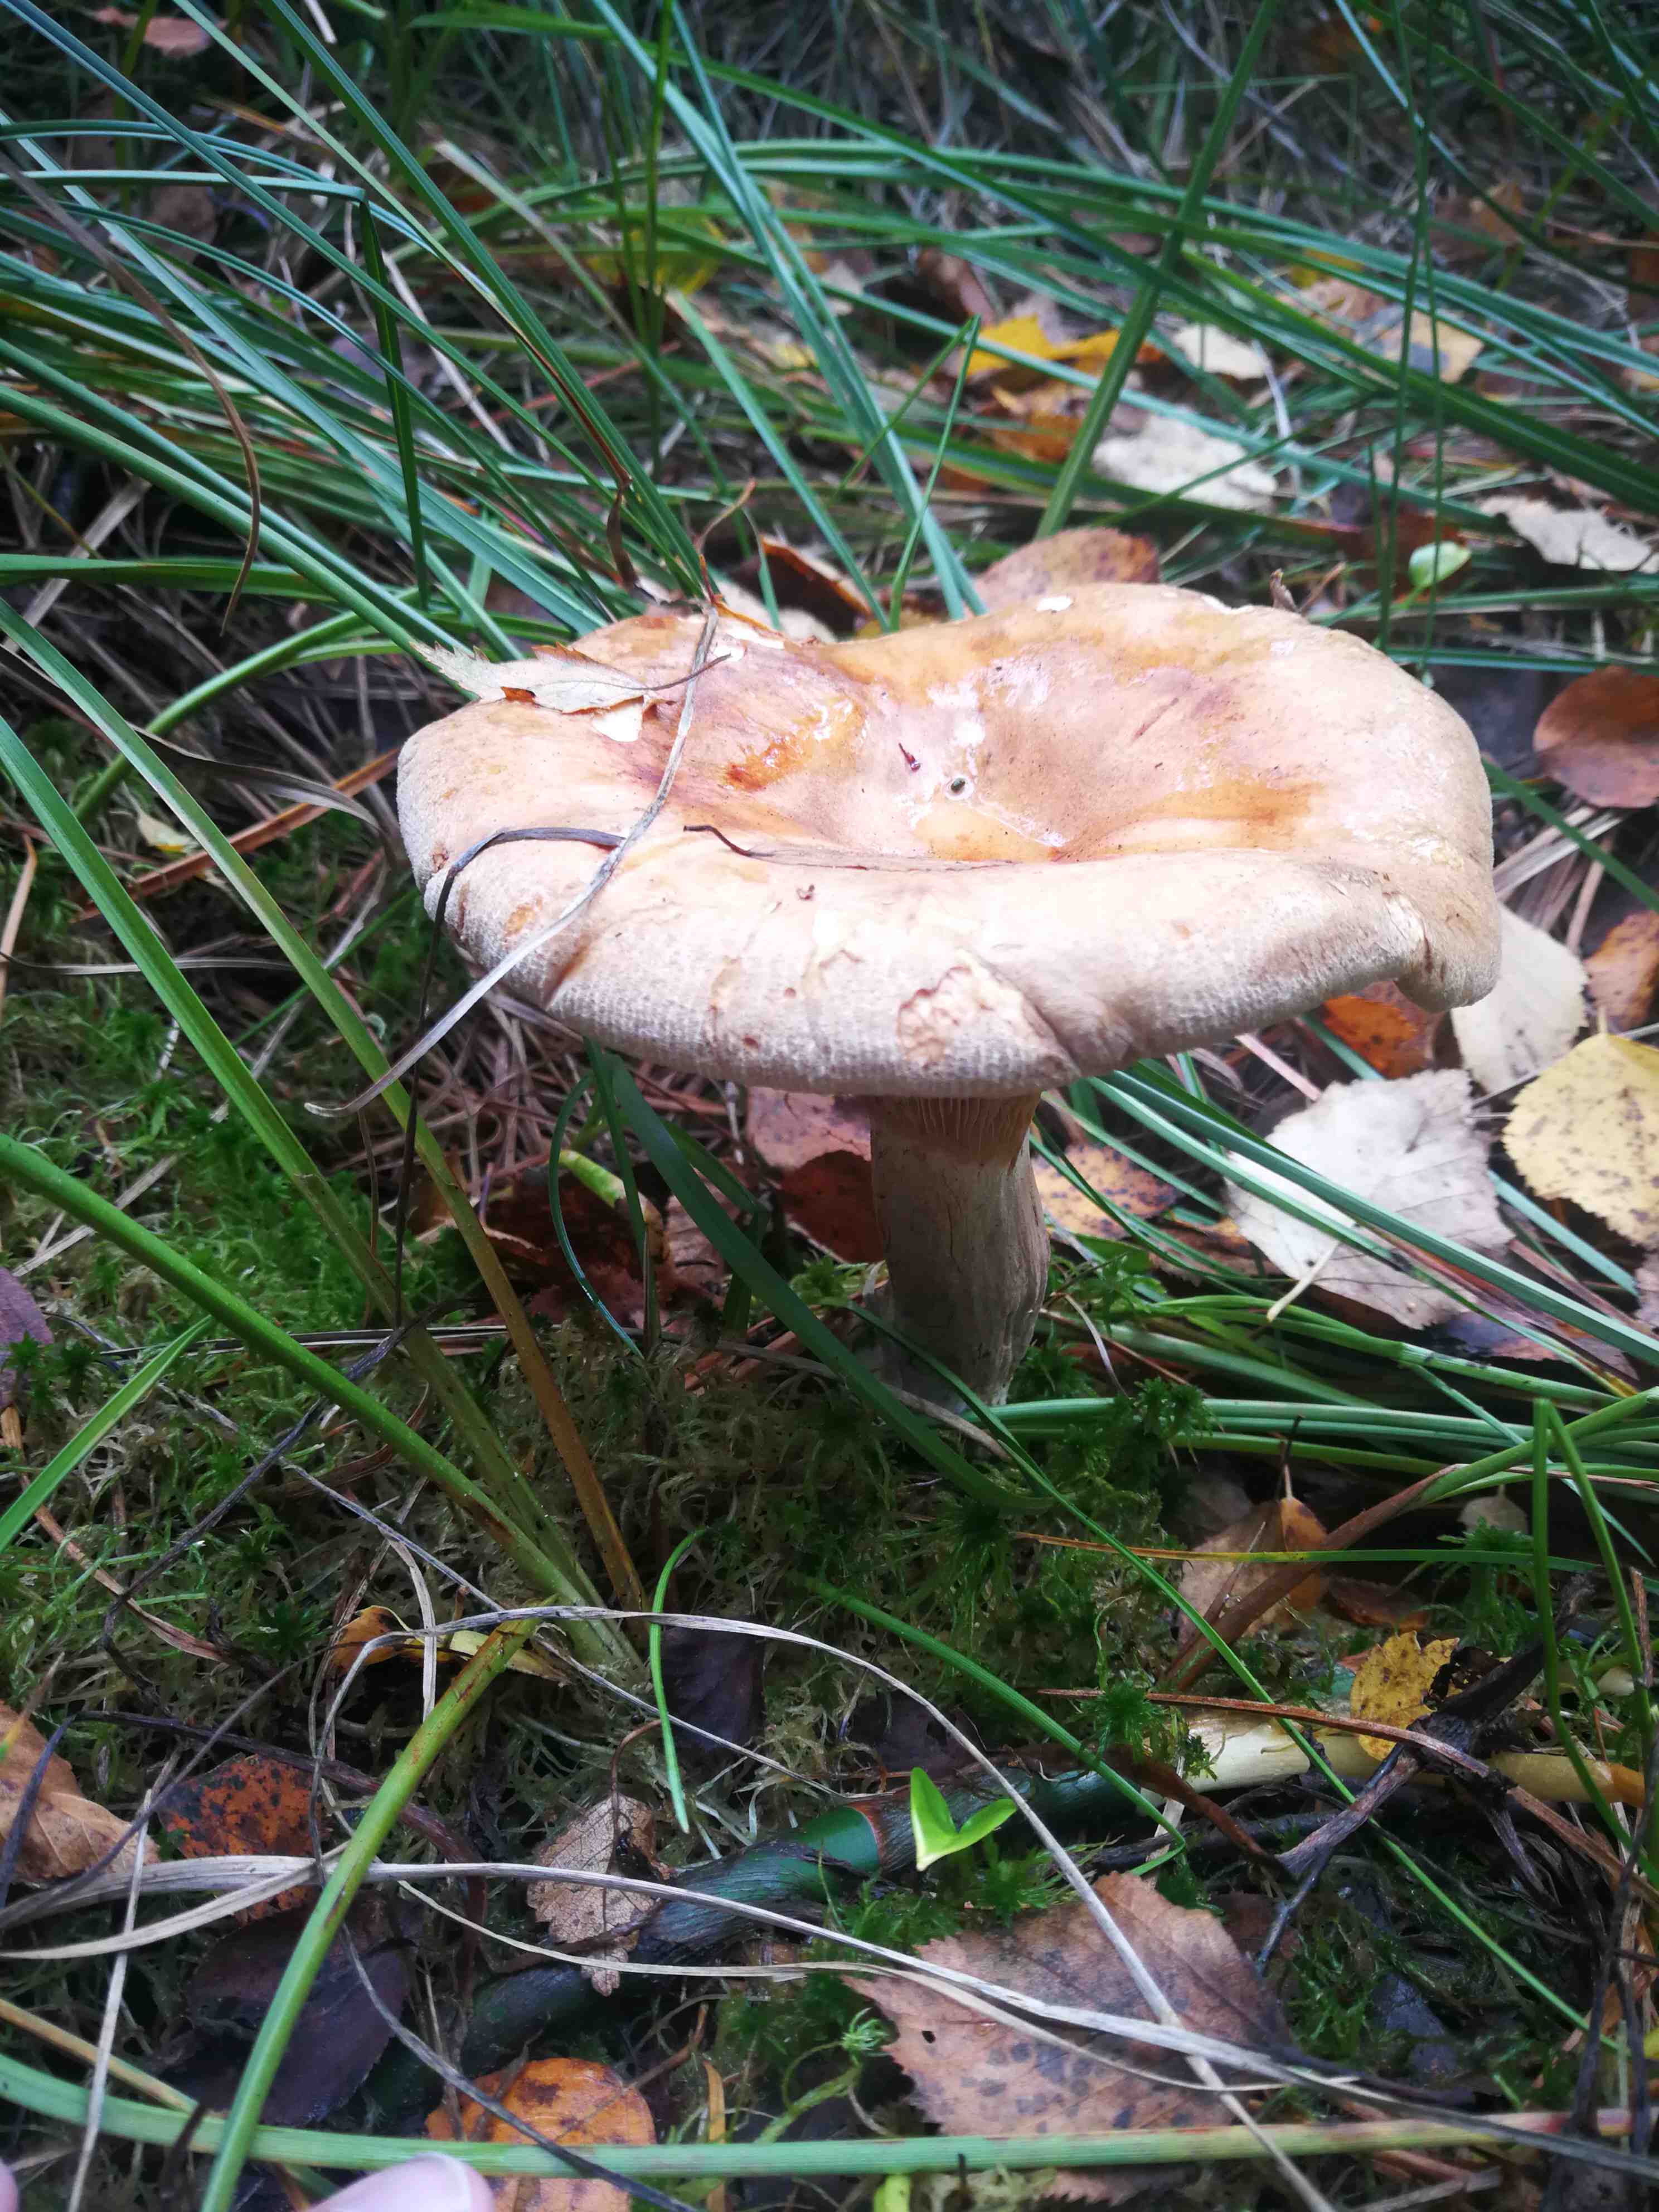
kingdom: Fungi
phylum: Basidiomycota
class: Agaricomycetes
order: Boletales
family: Paxillaceae
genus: Paxillus
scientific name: Paxillus involutus
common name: almindelig netbladhat
